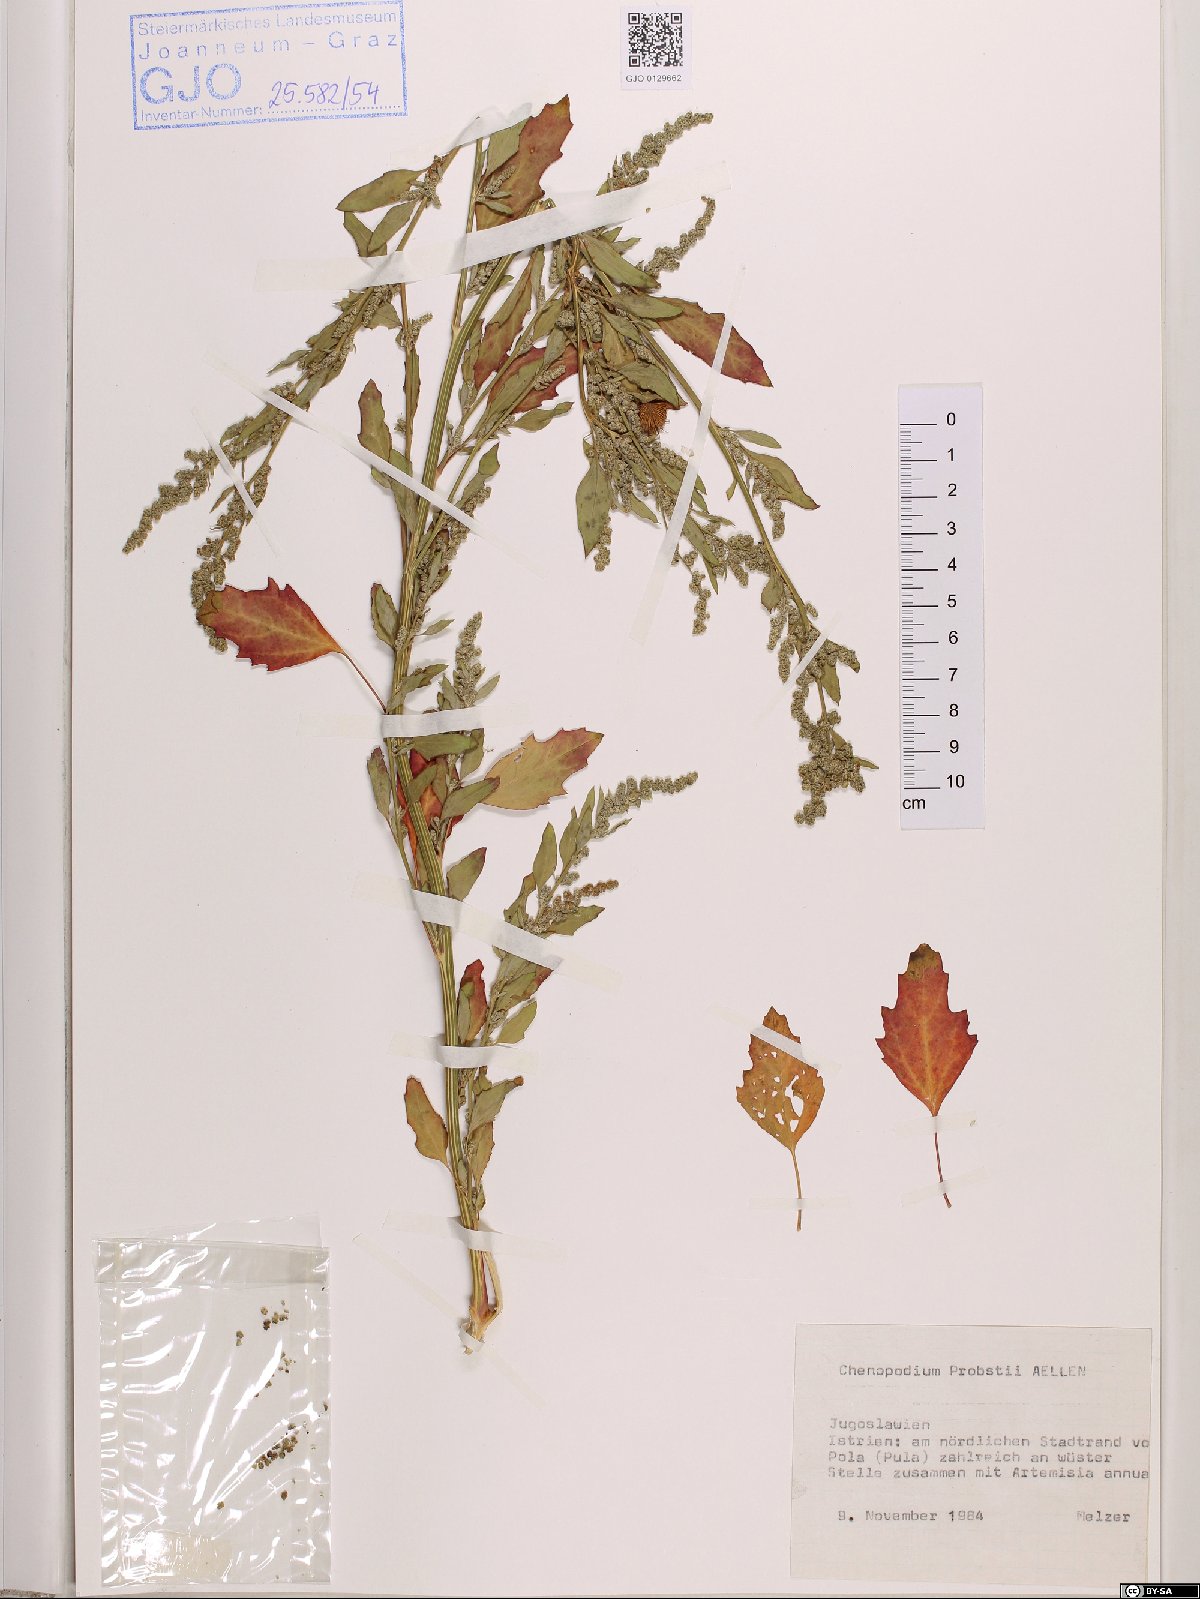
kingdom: Plantae
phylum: Tracheophyta
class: Magnoliopsida
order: Caryophyllales
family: Amaranthaceae
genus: Chenopodium
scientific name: Chenopodium probstii
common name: Probst's goosefoot
